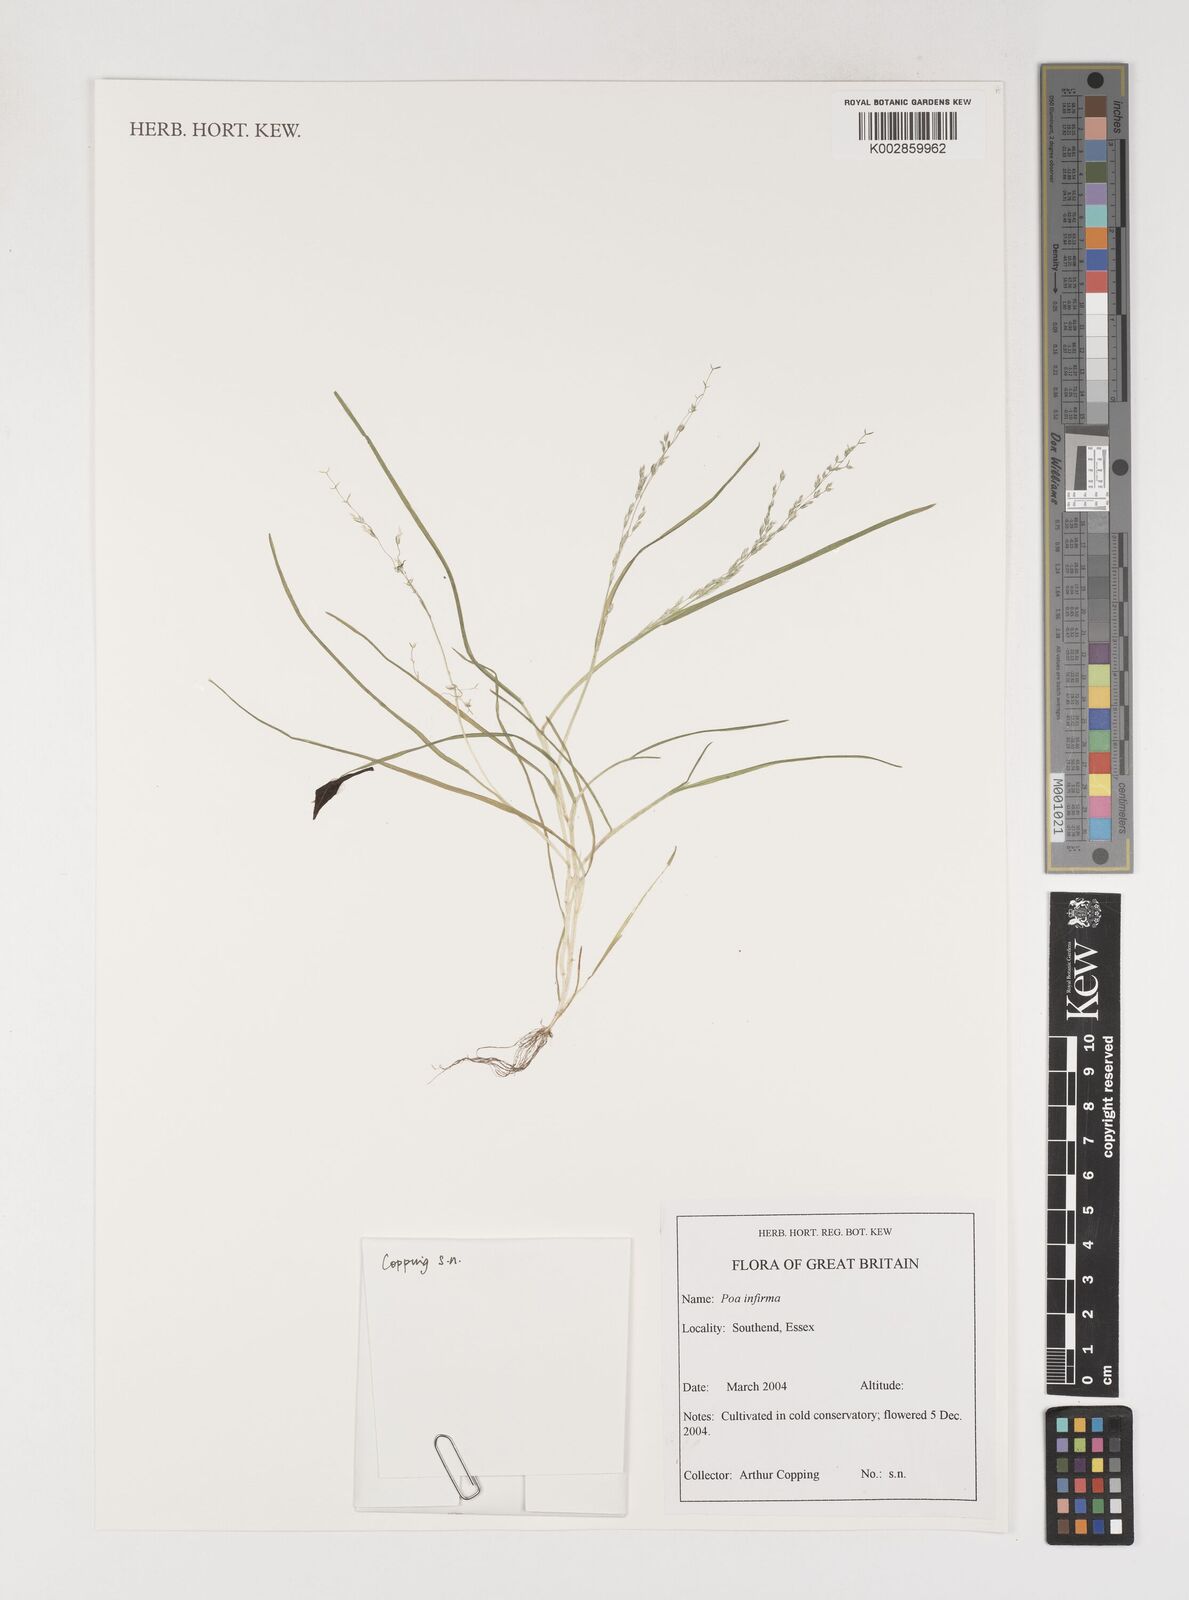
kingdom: Plantae
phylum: Tracheophyta
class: Liliopsida
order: Poales
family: Poaceae
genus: Poa
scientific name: Poa infirma
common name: Weak bluegrass
